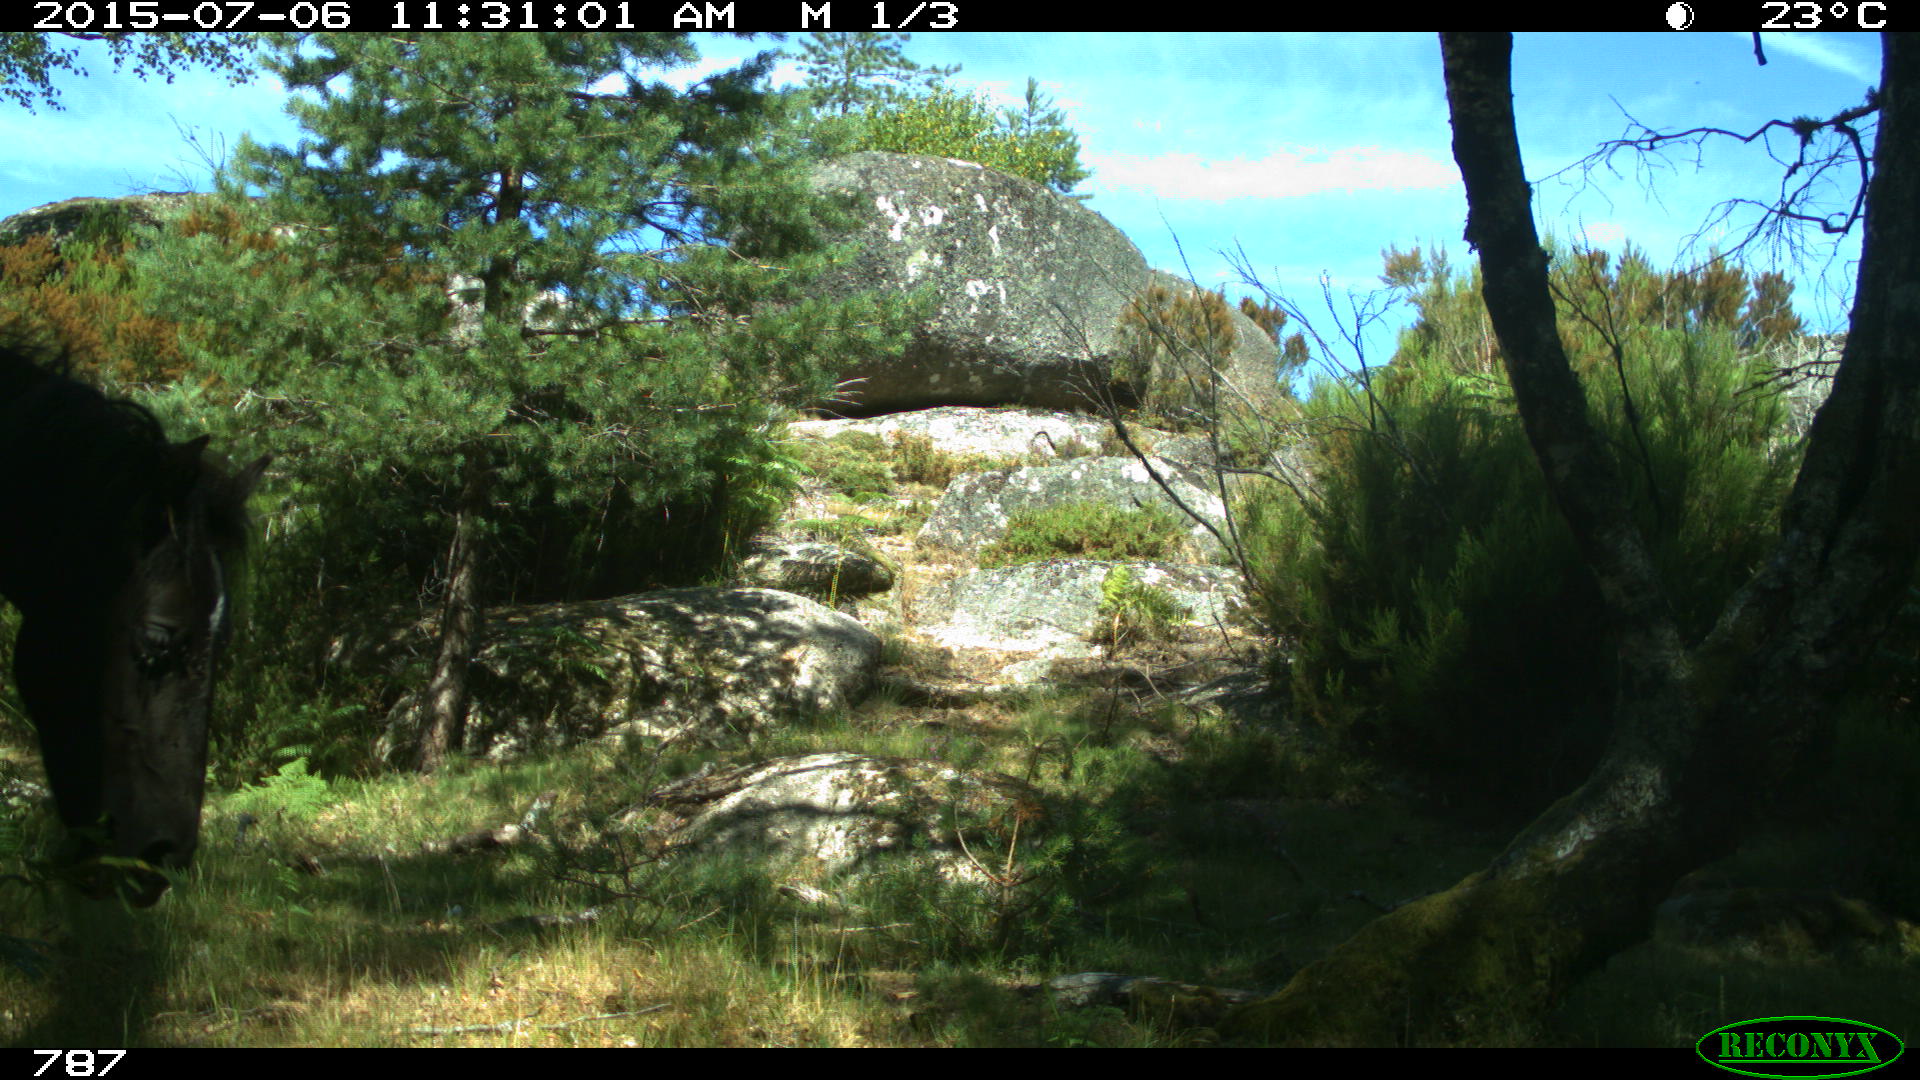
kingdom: Animalia
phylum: Chordata
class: Mammalia
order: Perissodactyla
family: Equidae
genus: Equus
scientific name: Equus caballus
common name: Horse
